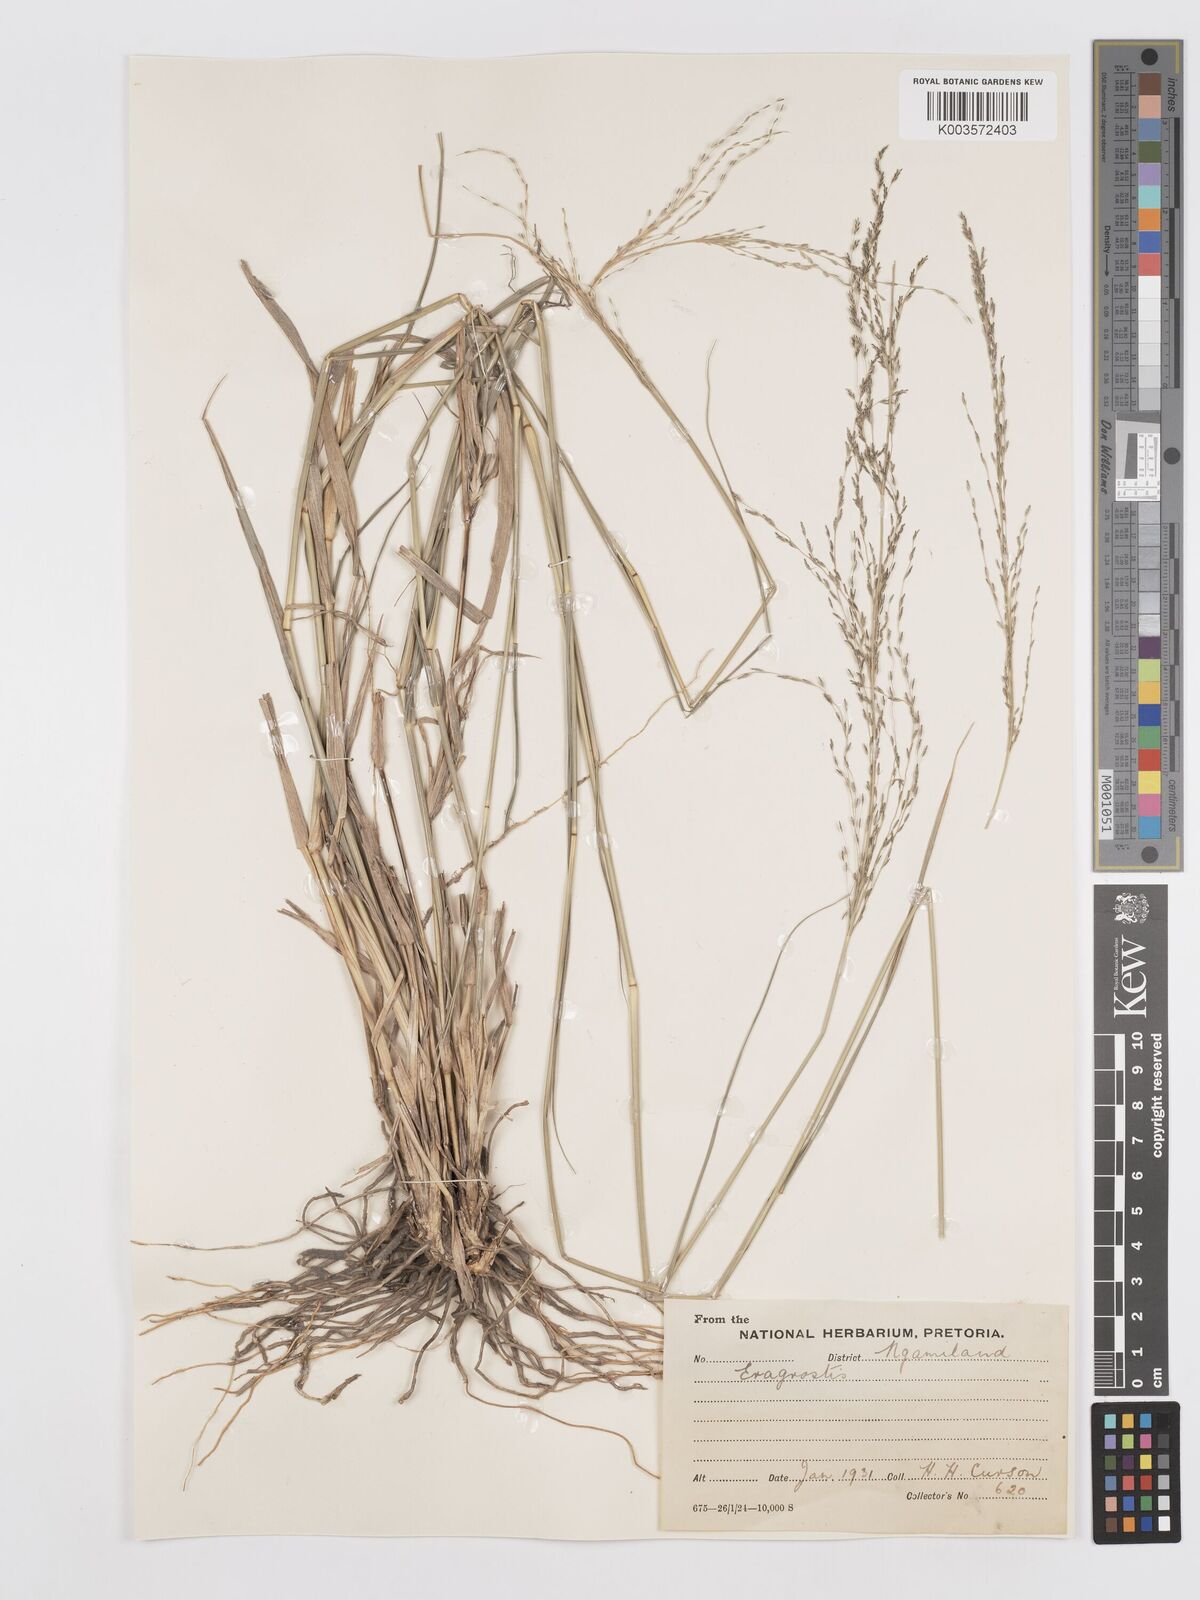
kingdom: Plantae
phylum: Tracheophyta
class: Liliopsida
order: Poales
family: Poaceae
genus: Eragrostis
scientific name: Eragrostis
